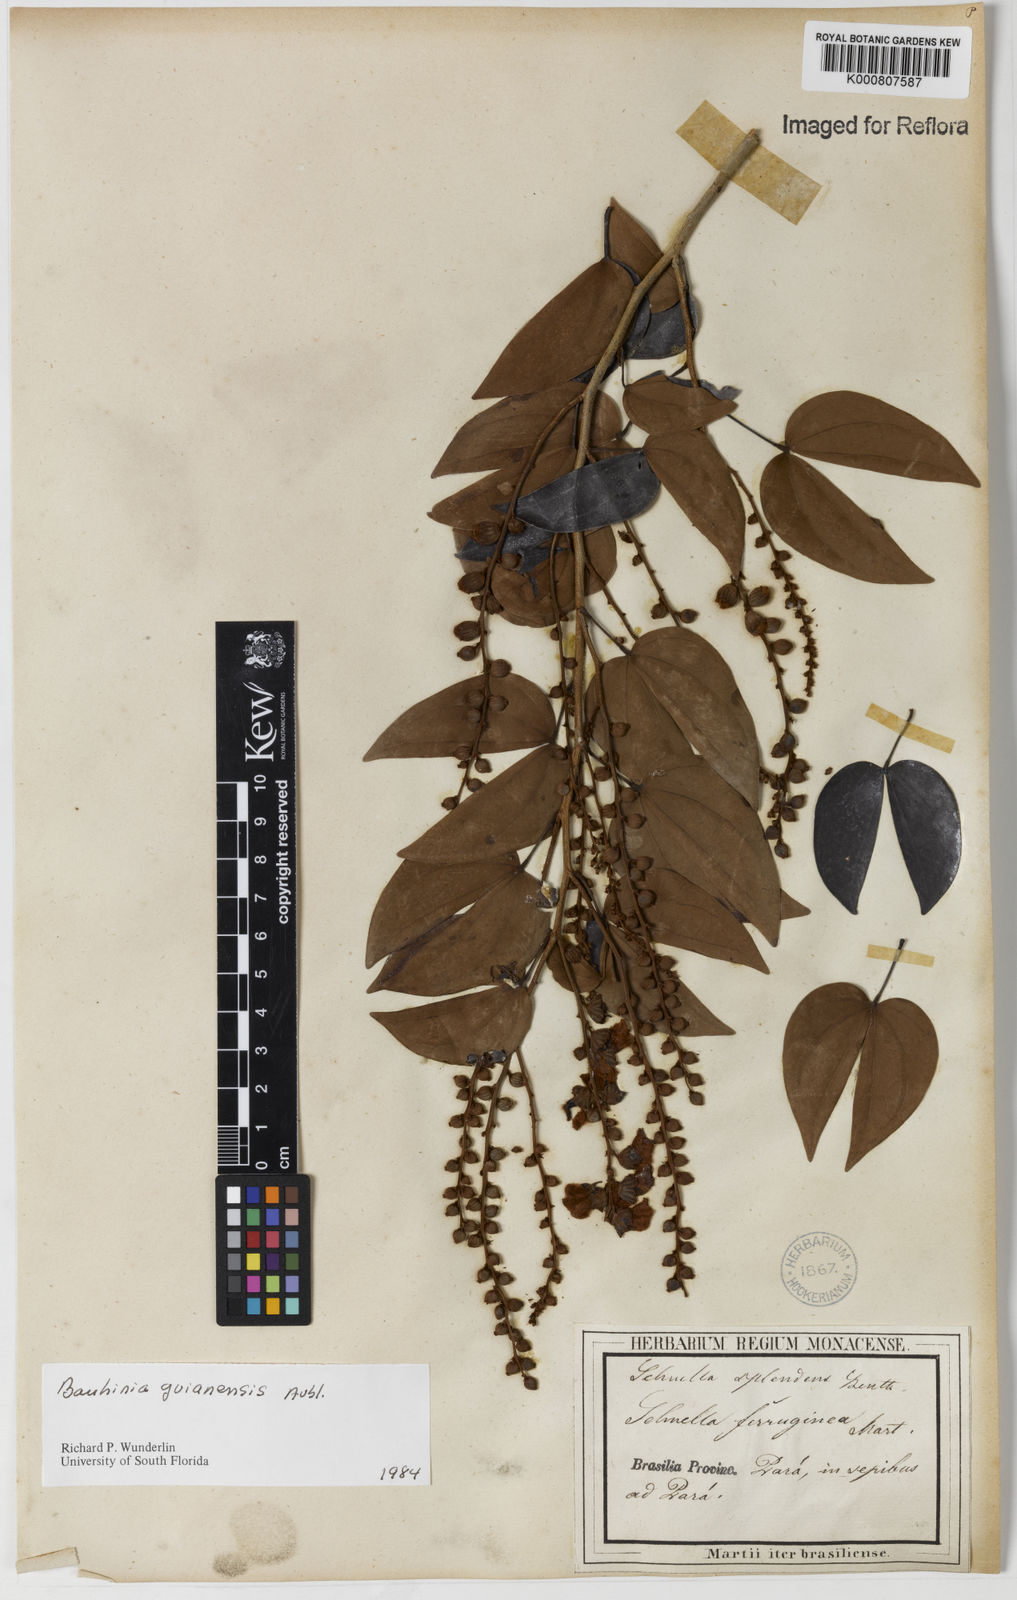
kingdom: Plantae
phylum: Tracheophyta
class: Magnoliopsida
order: Fabales
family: Fabaceae
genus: Schnella
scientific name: Schnella guianensis
